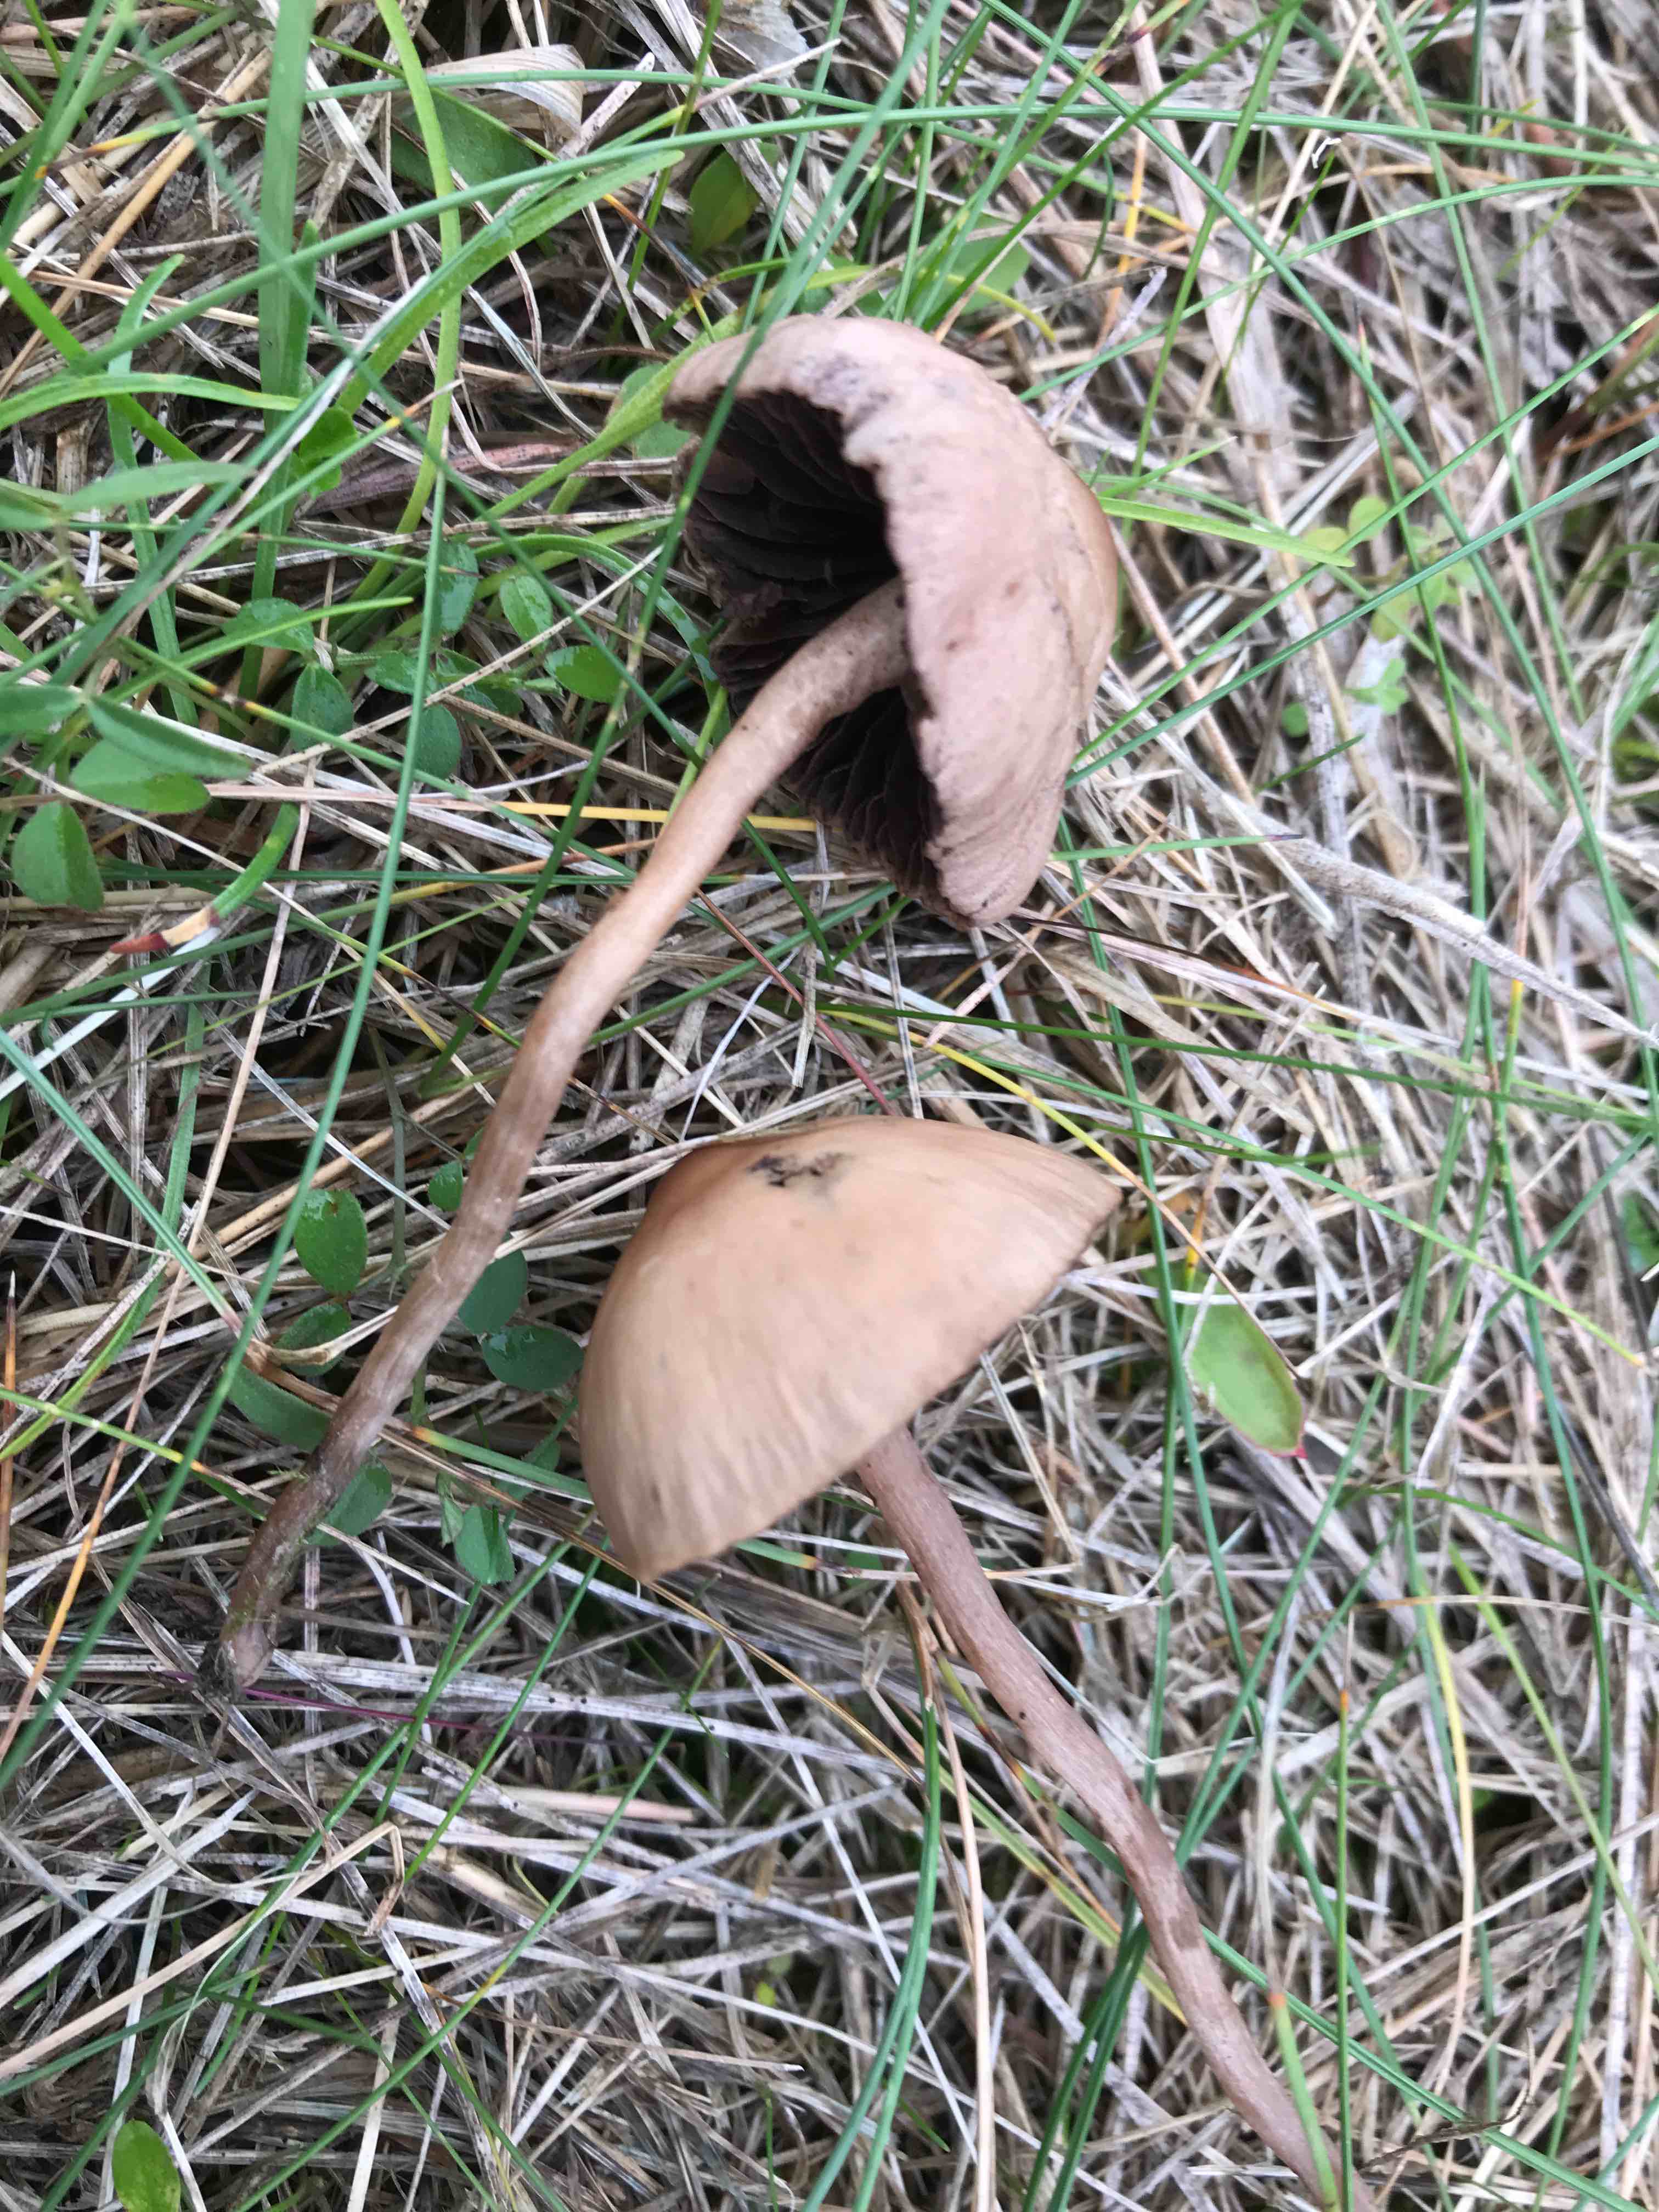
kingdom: Fungi
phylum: Basidiomycota
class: Agaricomycetes
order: Agaricales
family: Bolbitiaceae
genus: Panaeolus
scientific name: Panaeolus
